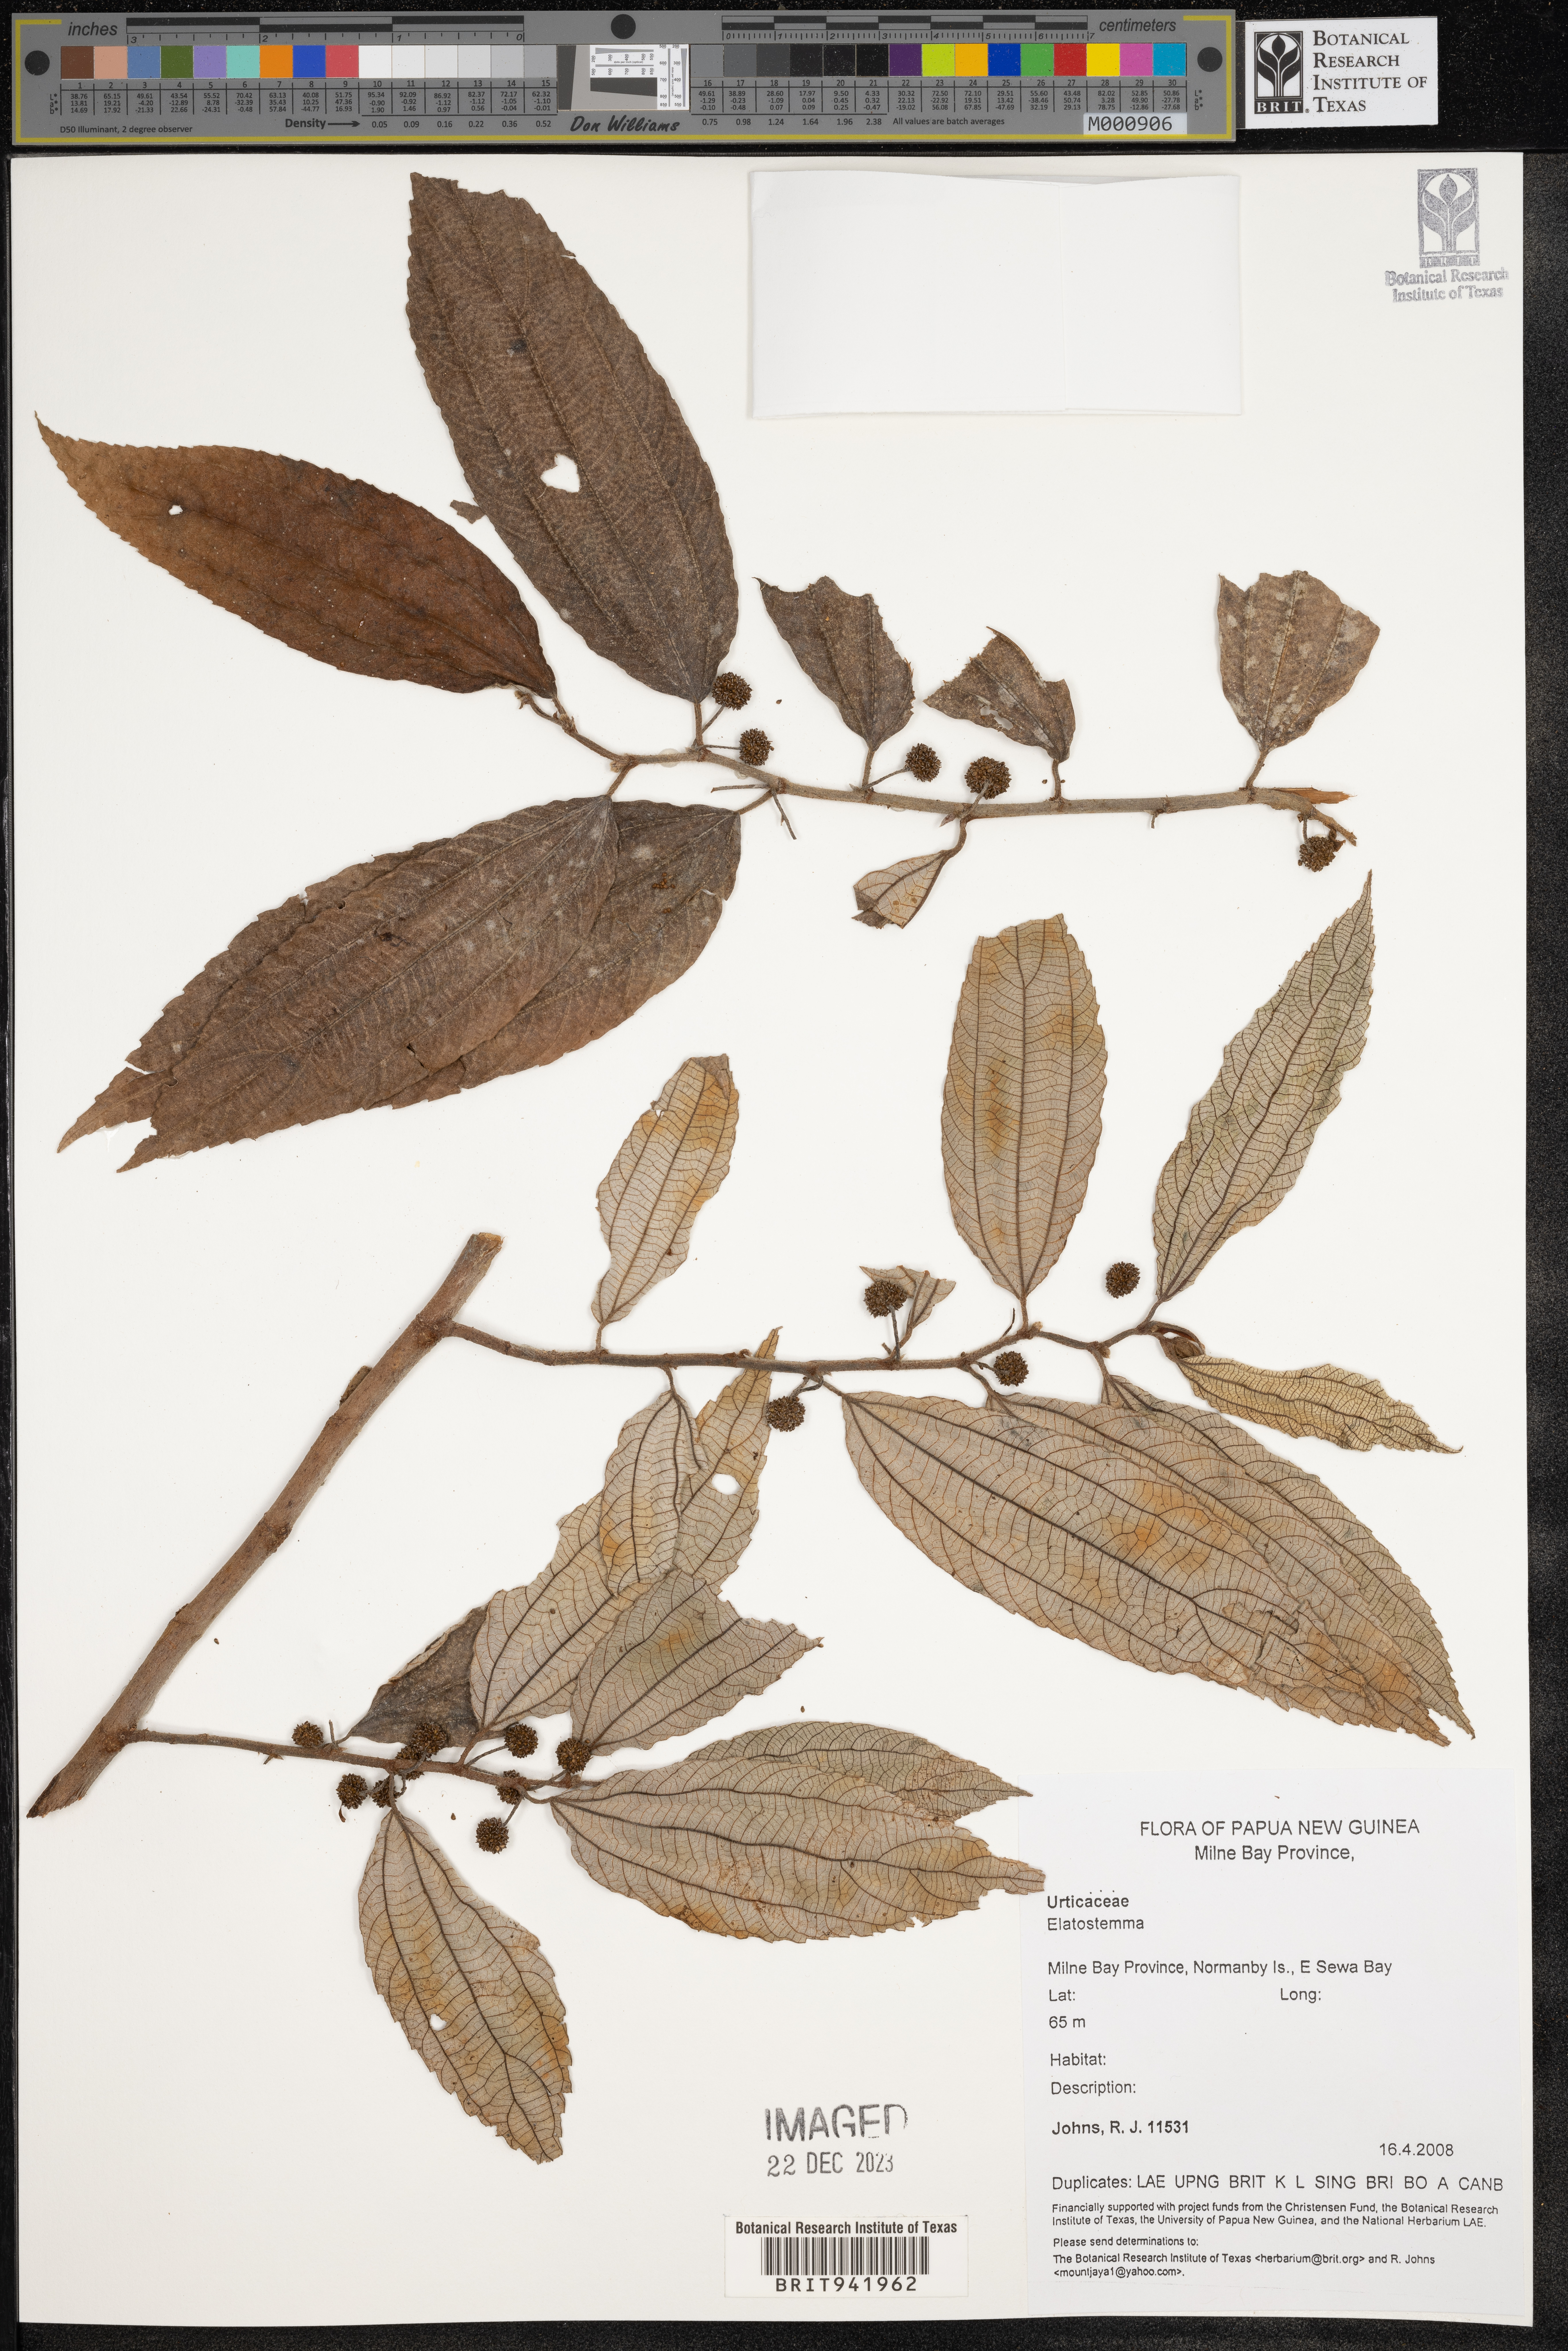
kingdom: Plantae
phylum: Tracheophyta
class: Magnoliopsida
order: Rosales
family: Urticaceae
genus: Elatostema
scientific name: Elatostema
